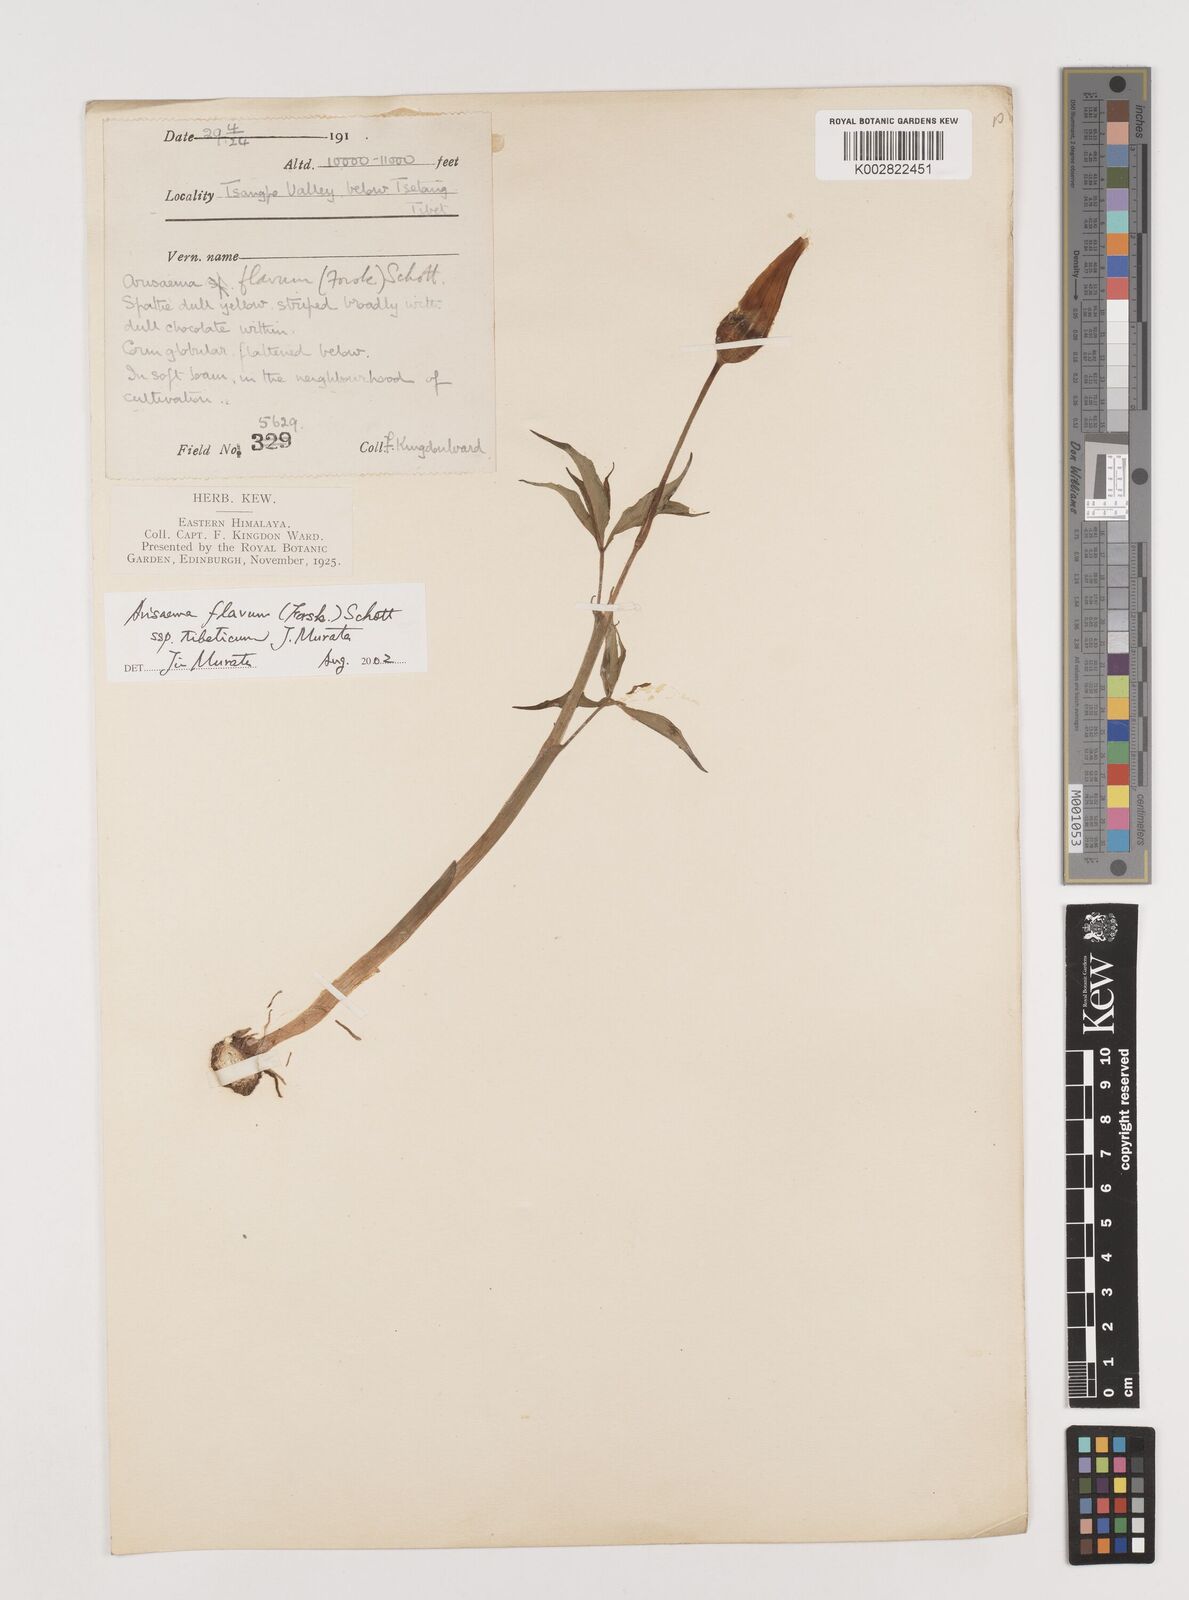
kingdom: Plantae
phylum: Tracheophyta
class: Liliopsida
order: Alismatales
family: Araceae
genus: Arisaema
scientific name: Arisaema flavum
